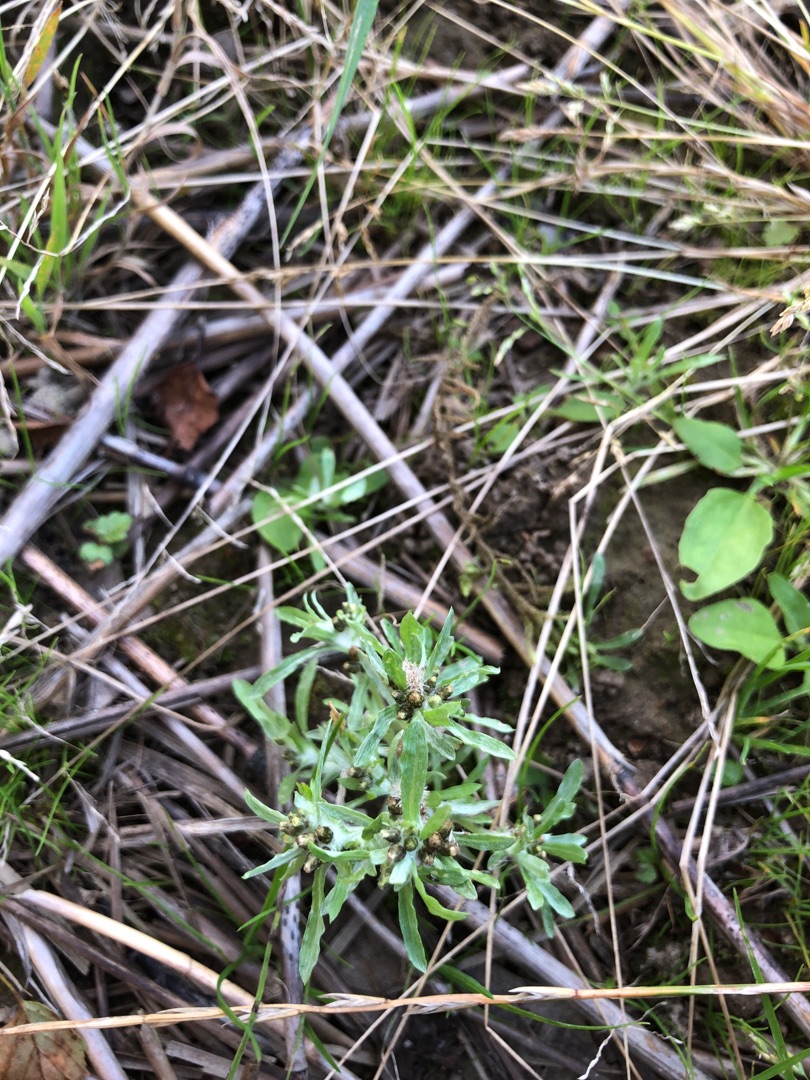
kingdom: Plantae
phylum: Tracheophyta
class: Magnoliopsida
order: Asterales
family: Asteraceae
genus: Gnaphalium
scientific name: Gnaphalium uliginosum
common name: Sump-evighedsblomst
